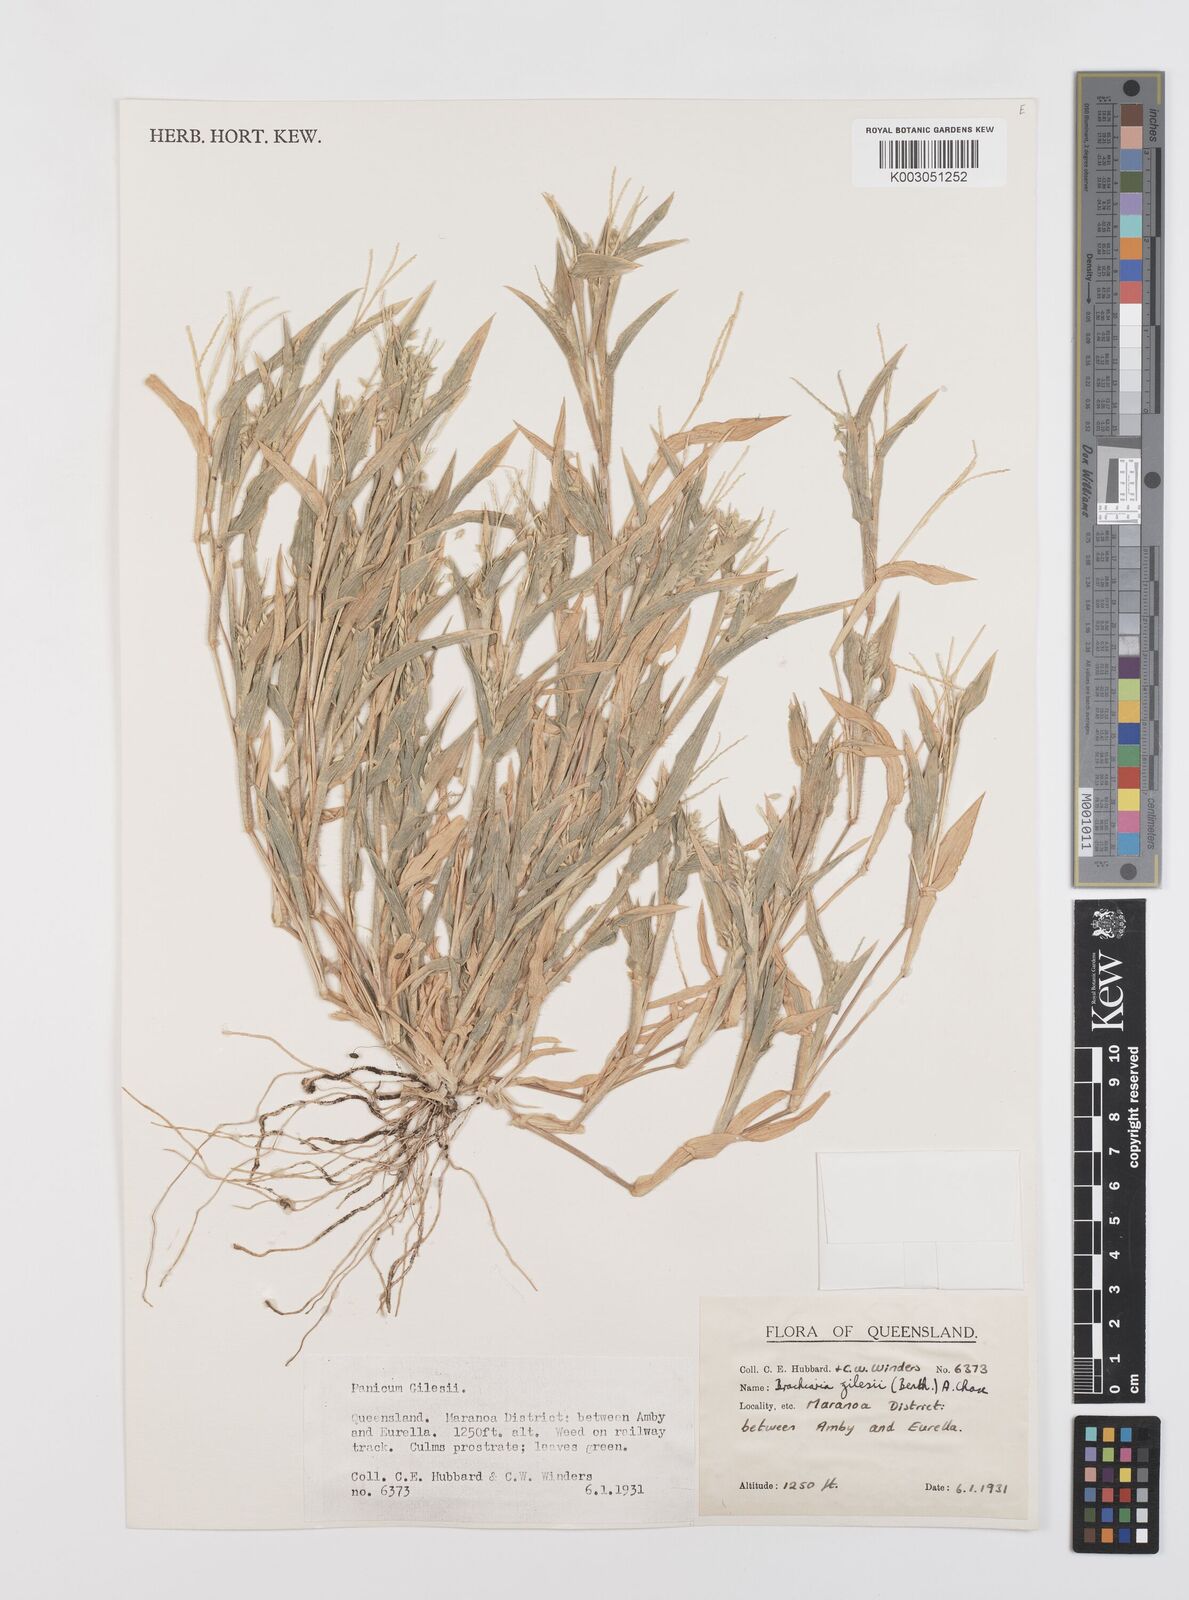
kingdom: Plantae
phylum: Tracheophyta
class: Liliopsida
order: Poales
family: Poaceae
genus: Urochloa
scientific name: Urochloa gilesii
